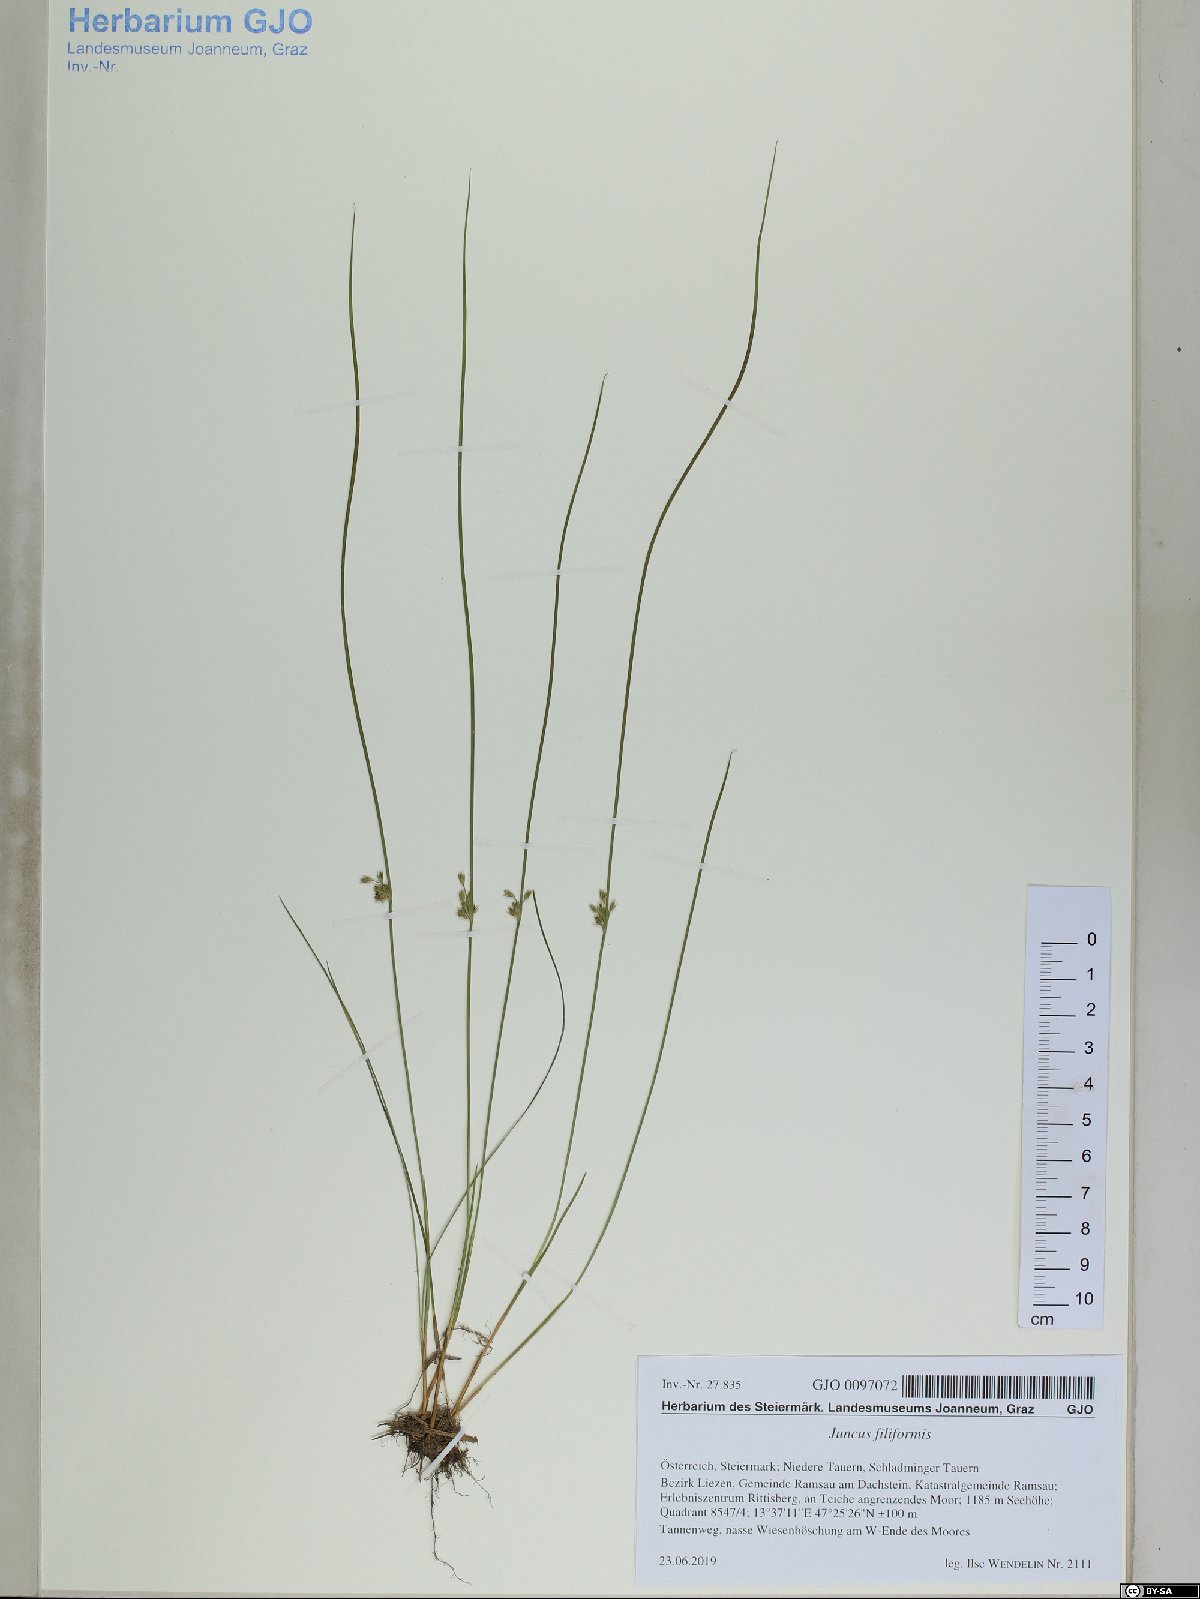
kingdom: Plantae
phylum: Tracheophyta
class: Liliopsida
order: Poales
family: Juncaceae
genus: Juncus
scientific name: Juncus filiformis
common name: Thread rush
